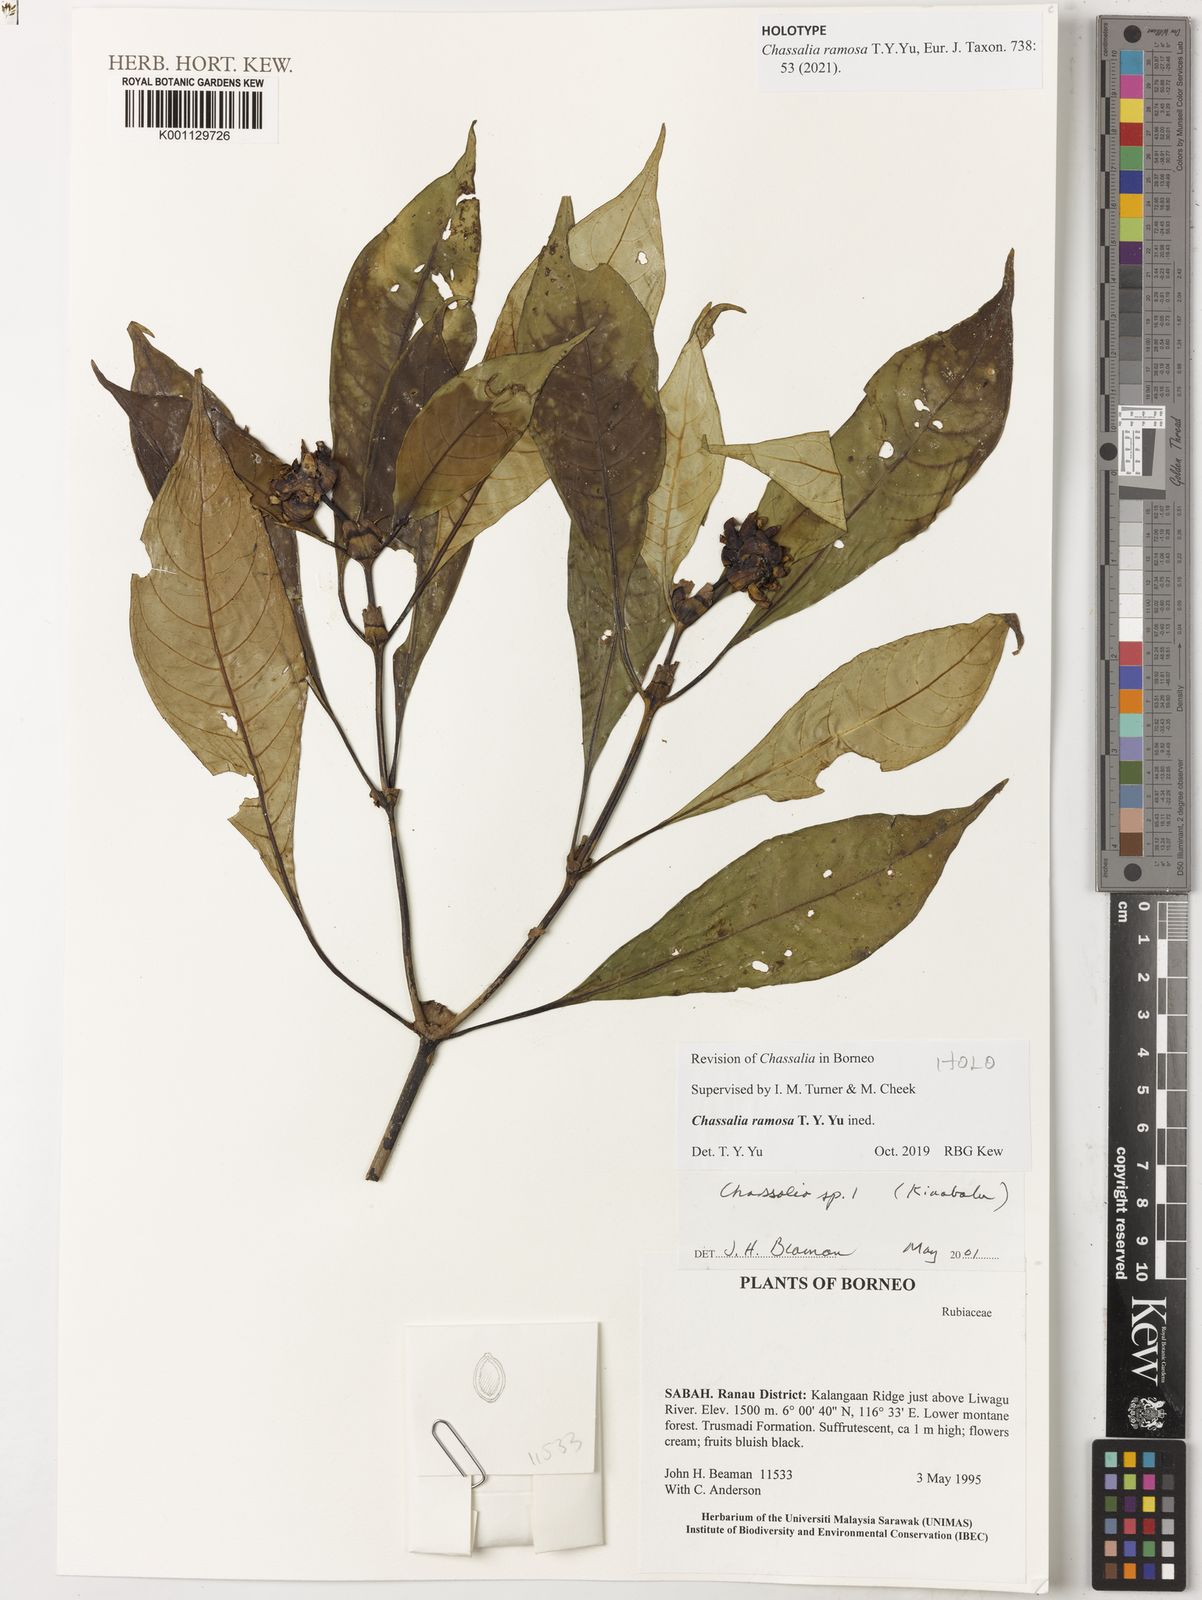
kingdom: Plantae
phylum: Tracheophyta
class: Magnoliopsida
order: Gentianales
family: Rubiaceae
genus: Chassalia
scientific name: Chassalia
